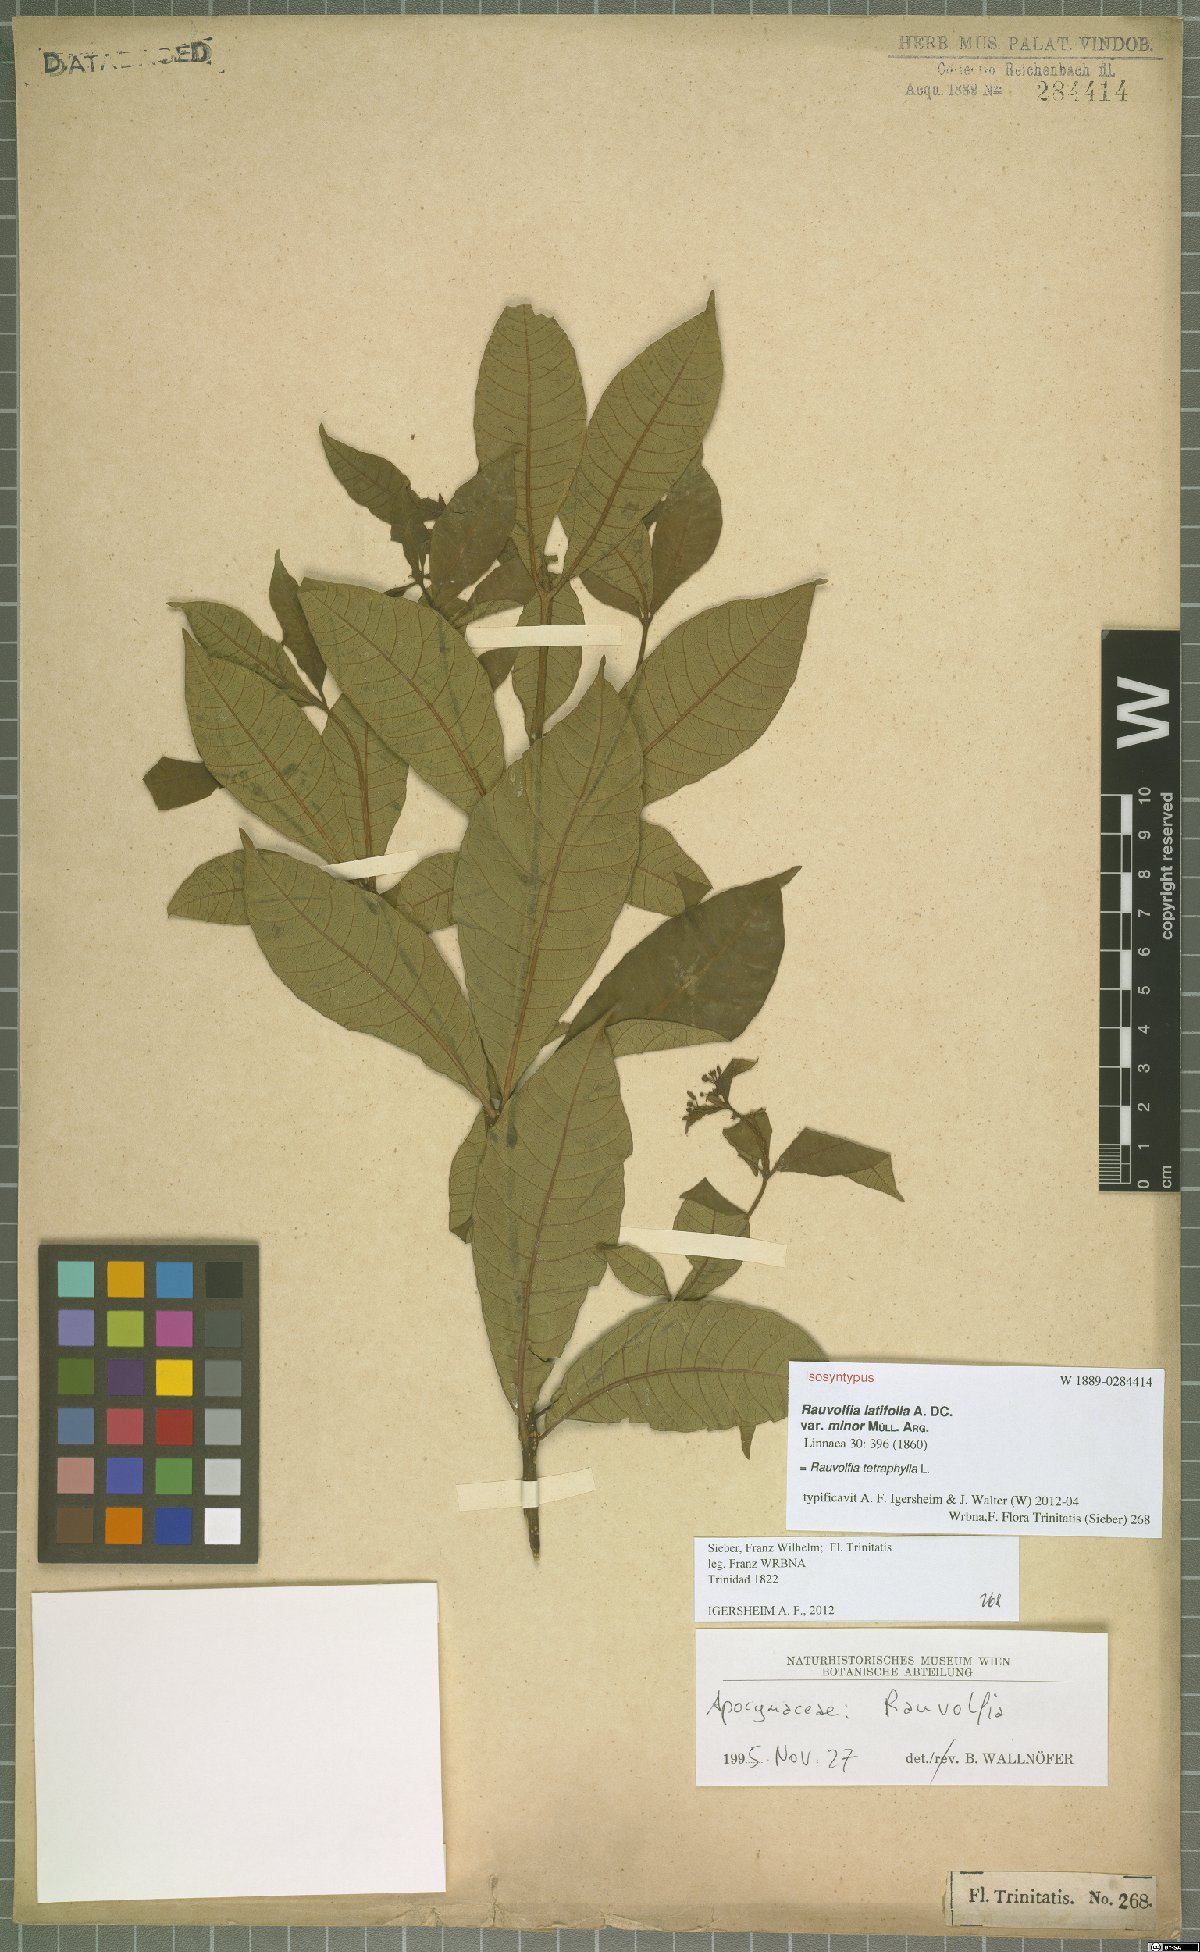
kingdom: Plantae
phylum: Tracheophyta
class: Magnoliopsida
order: Gentianales
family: Apocynaceae
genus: Rauvolfia
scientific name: Rauvolfia tetraphylla
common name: Four-leaf devil-pepper
